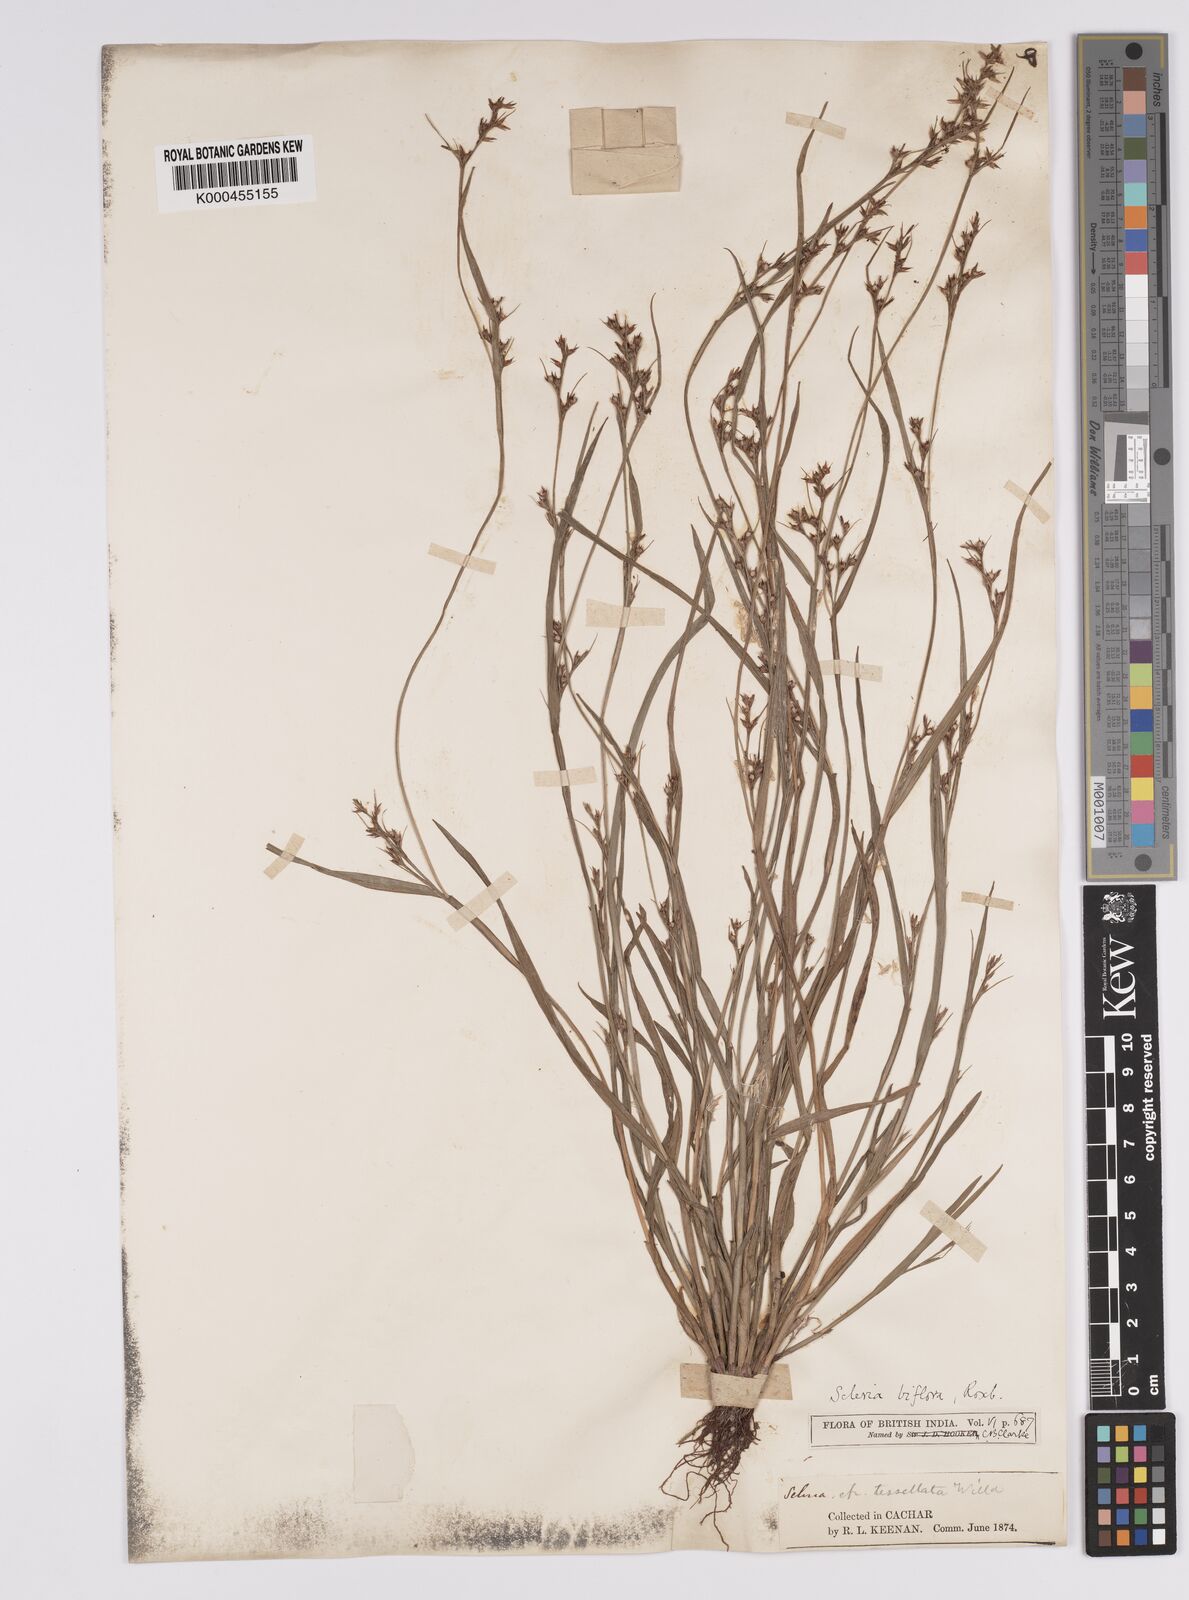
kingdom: Plantae
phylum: Tracheophyta
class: Liliopsida
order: Poales
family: Cyperaceae
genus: Scleria
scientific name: Scleria biflora
